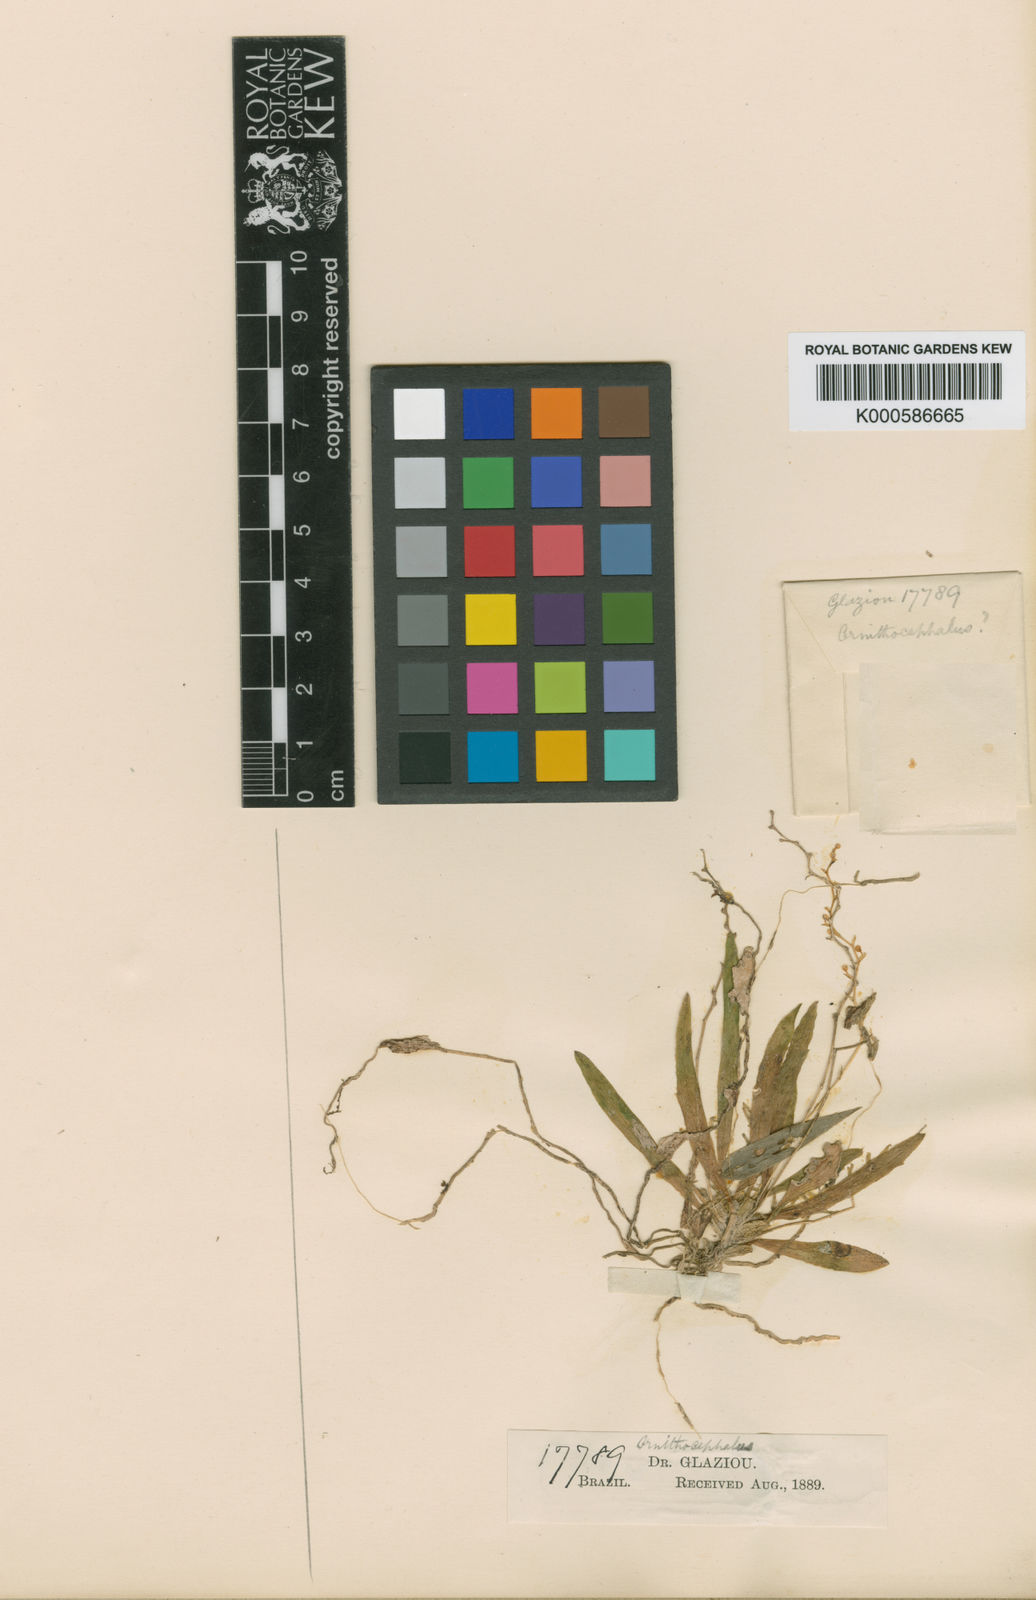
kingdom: Plantae
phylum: Tracheophyta
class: Liliopsida
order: Asparagales
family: Orchidaceae
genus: Zygostates
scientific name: Zygostates multiflora
